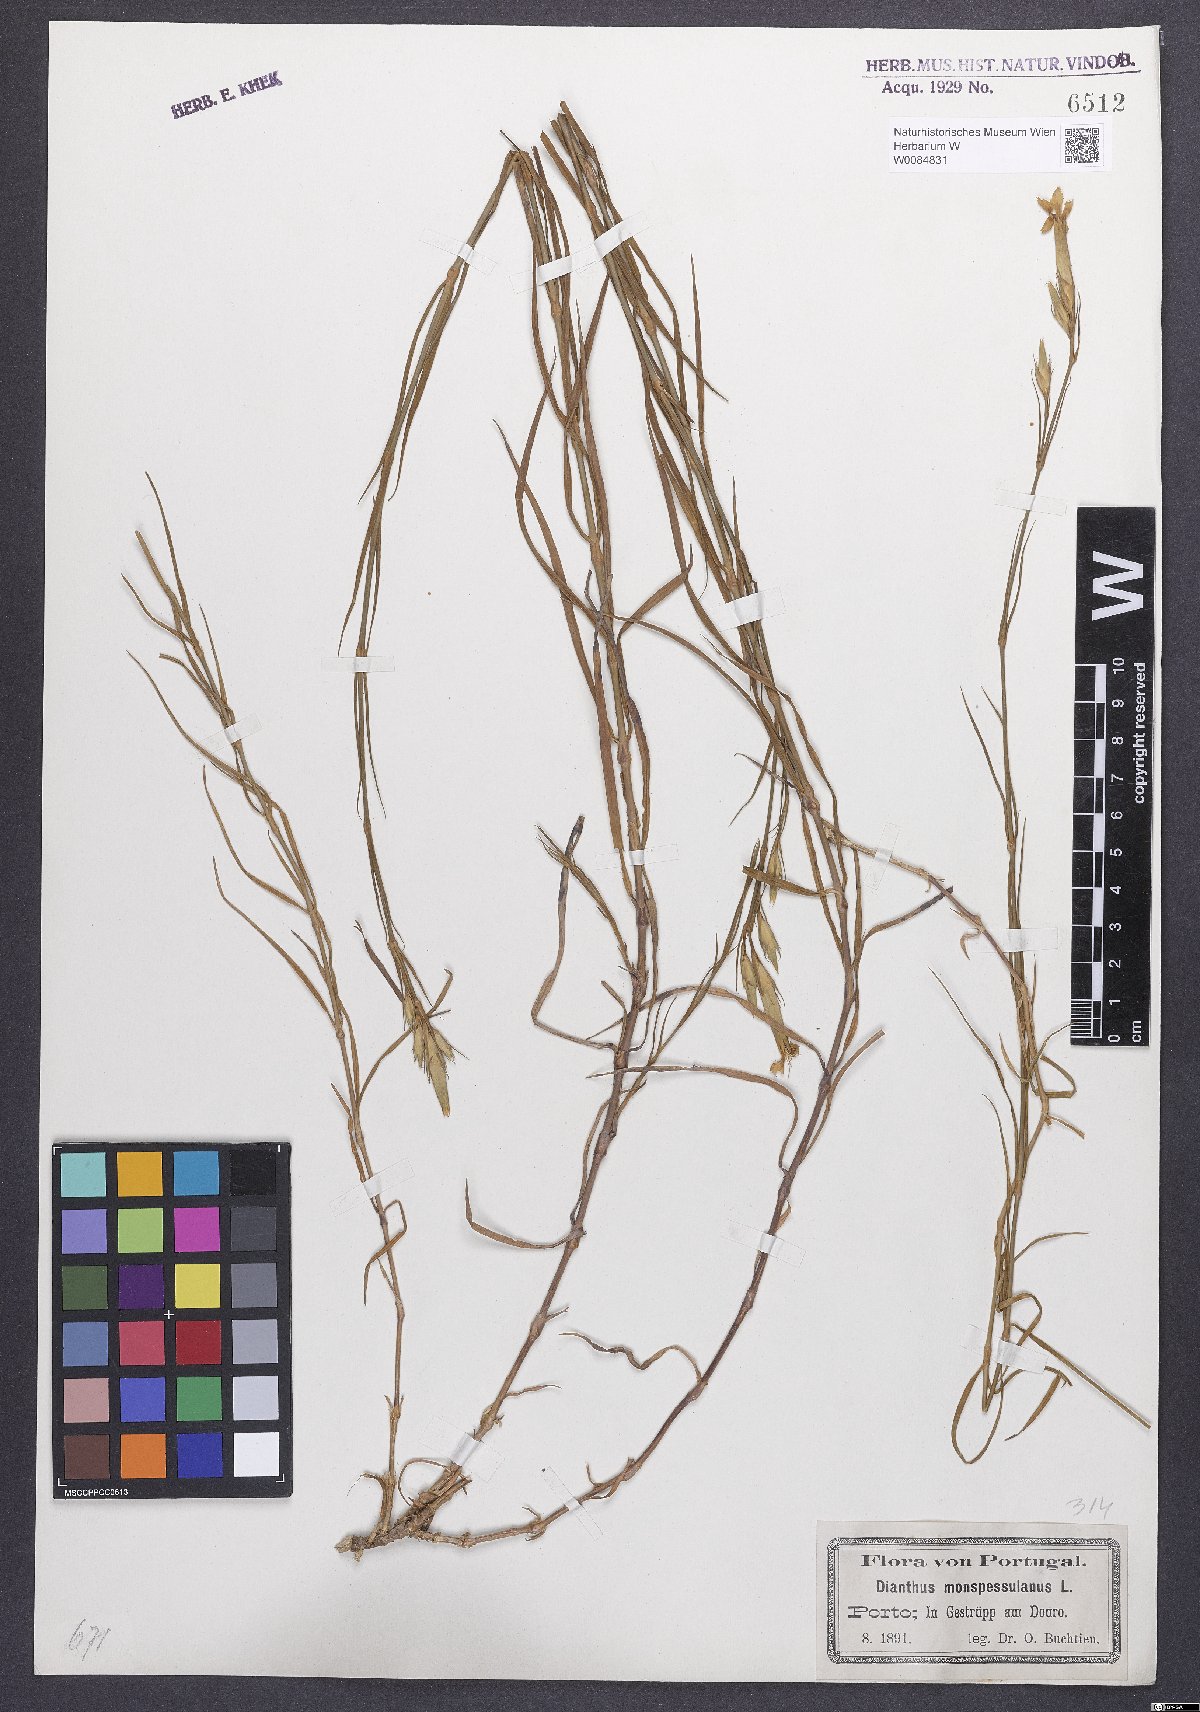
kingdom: Plantae
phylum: Tracheophyta
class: Magnoliopsida
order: Caryophyllales
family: Caryophyllaceae
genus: Dianthus
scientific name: Dianthus hyssopifolius
